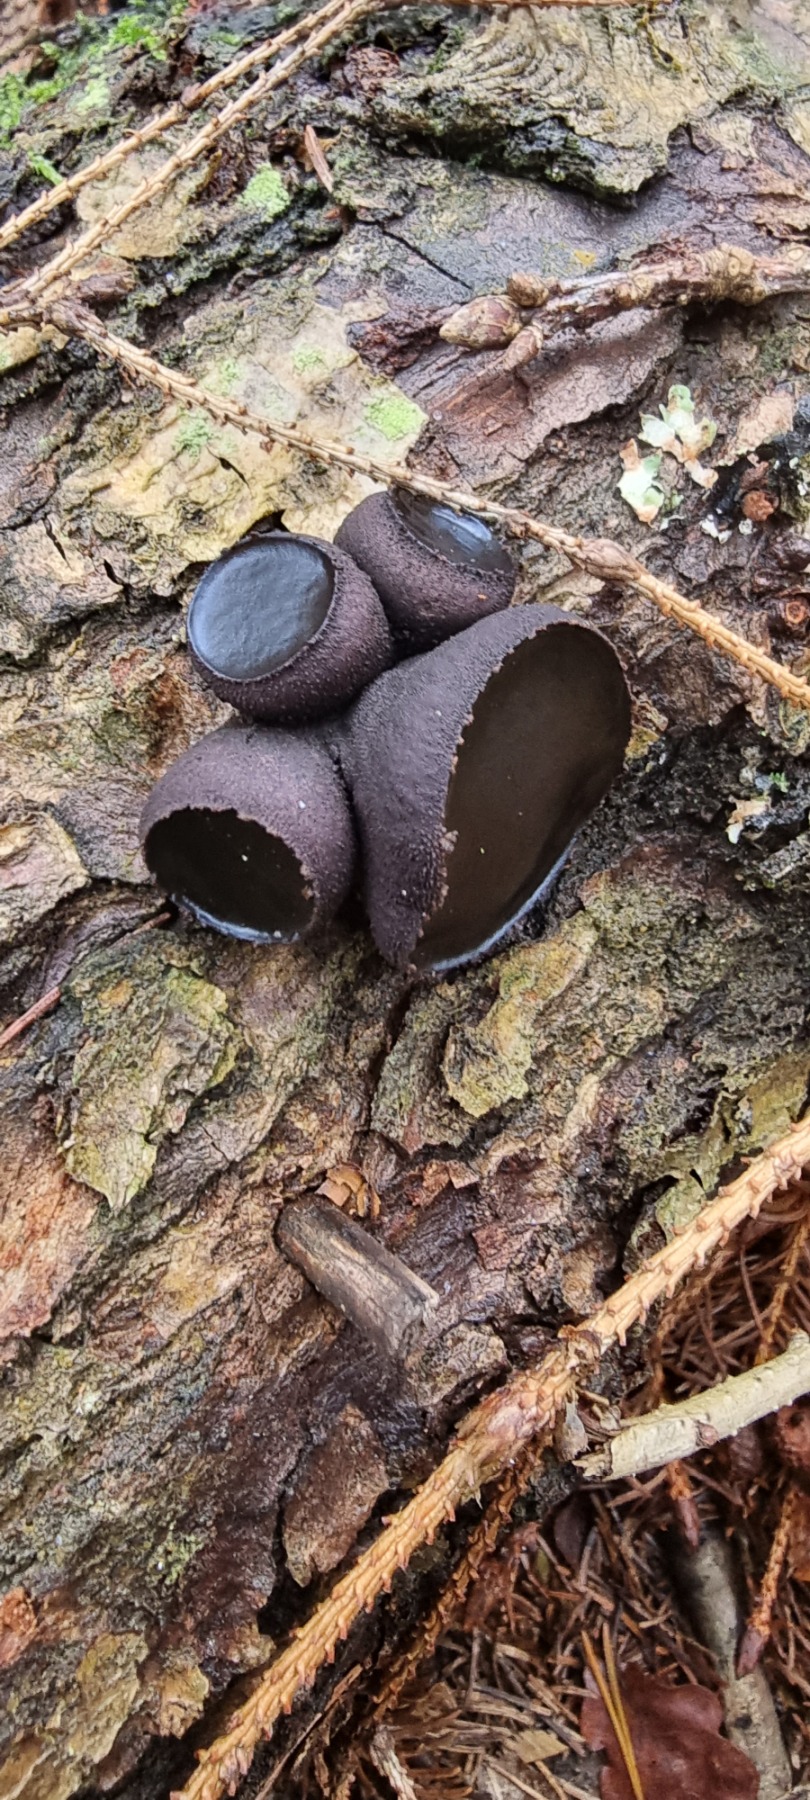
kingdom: Fungi
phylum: Ascomycota
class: Leotiomycetes
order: Phacidiales
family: Phacidiaceae
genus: Bulgaria
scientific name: Bulgaria inquinans
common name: Afsmittende topsvamp
